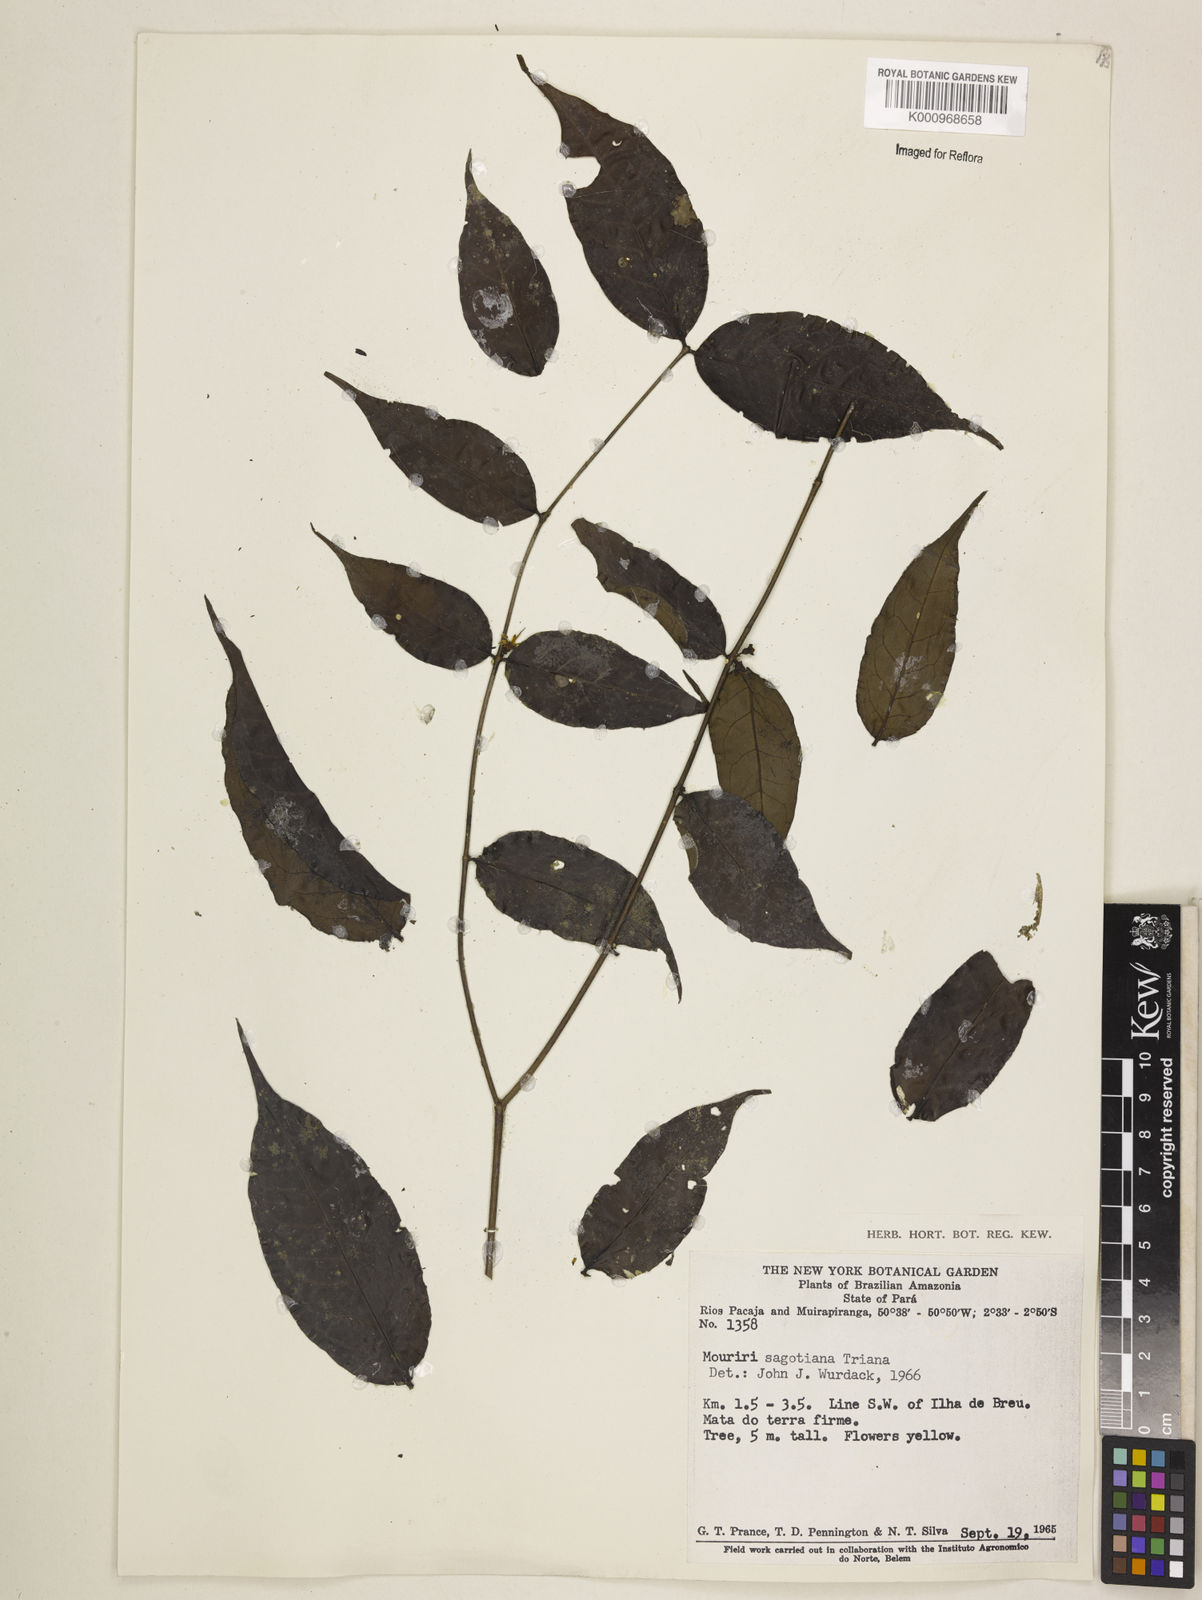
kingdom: Plantae
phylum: Tracheophyta
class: Magnoliopsida
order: Myrtales
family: Melastomataceae
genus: Mouriri
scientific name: Mouriri sagotiana
